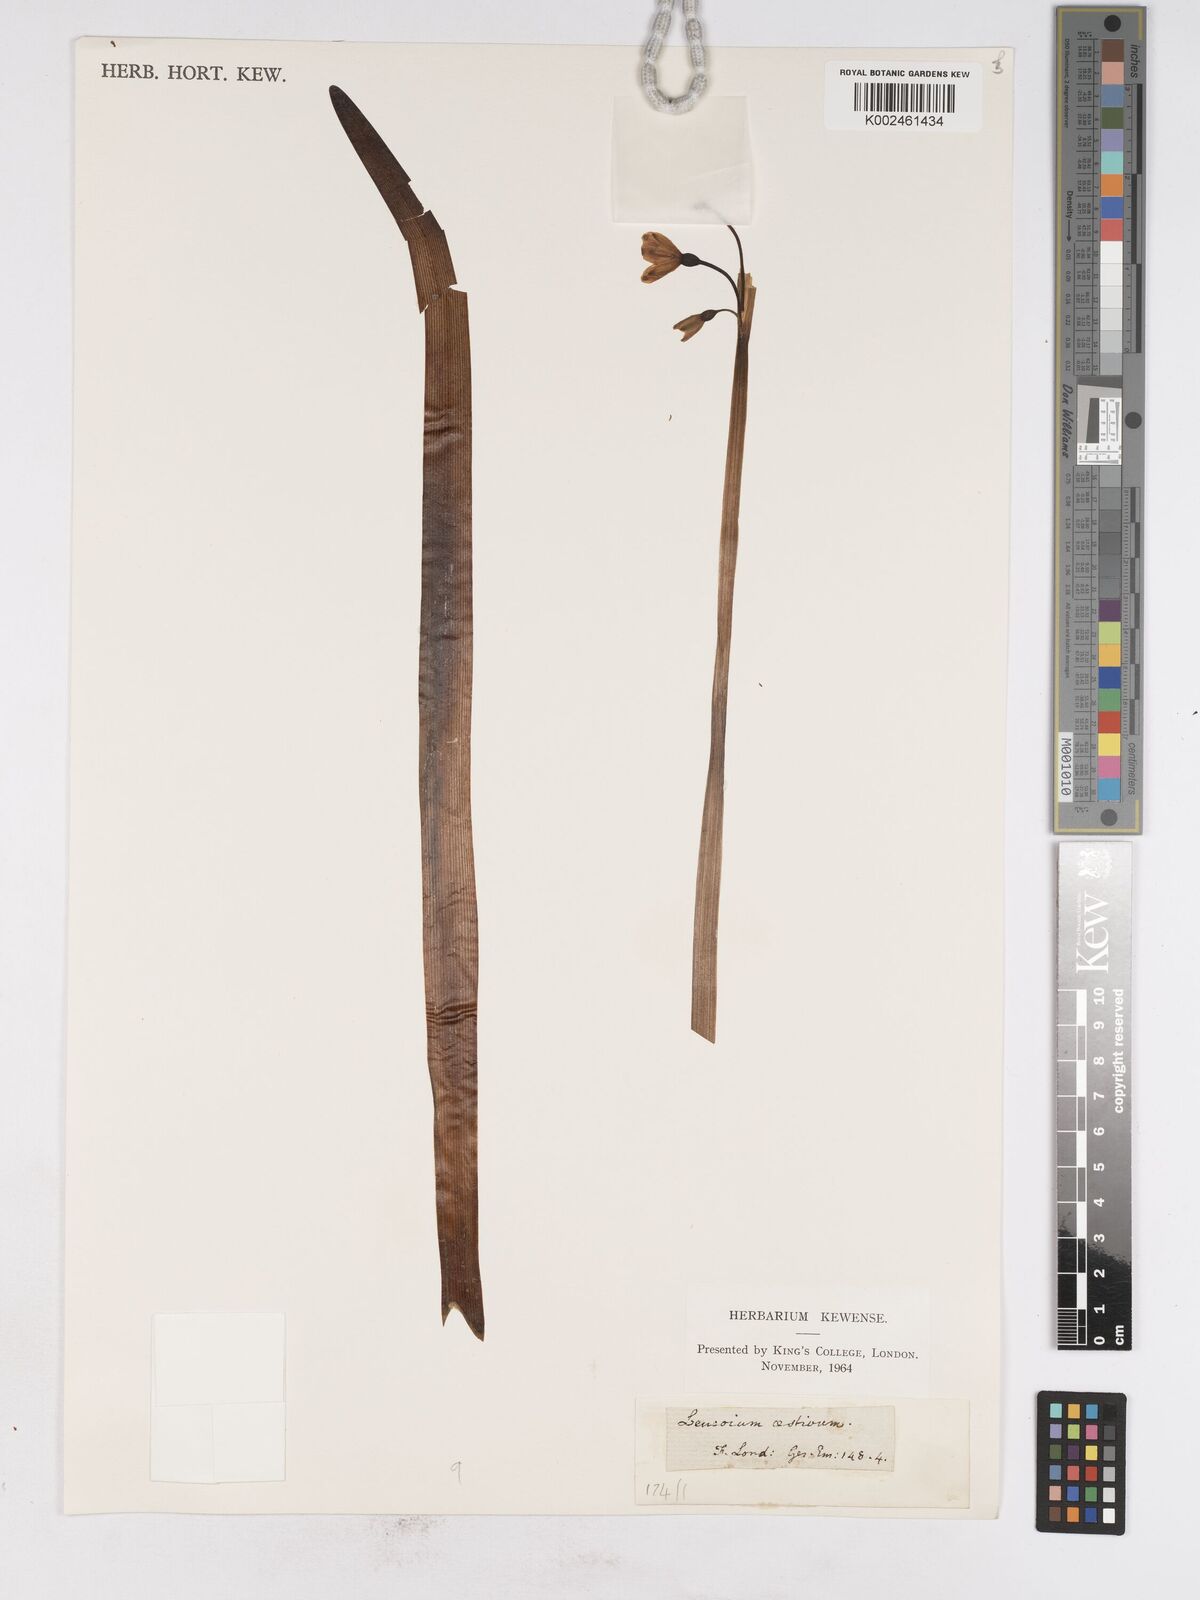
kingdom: Plantae
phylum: Tracheophyta
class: Liliopsida
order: Asparagales
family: Amaryllidaceae
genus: Leucojum
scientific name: Leucojum aestivum
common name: Summer snowflake
